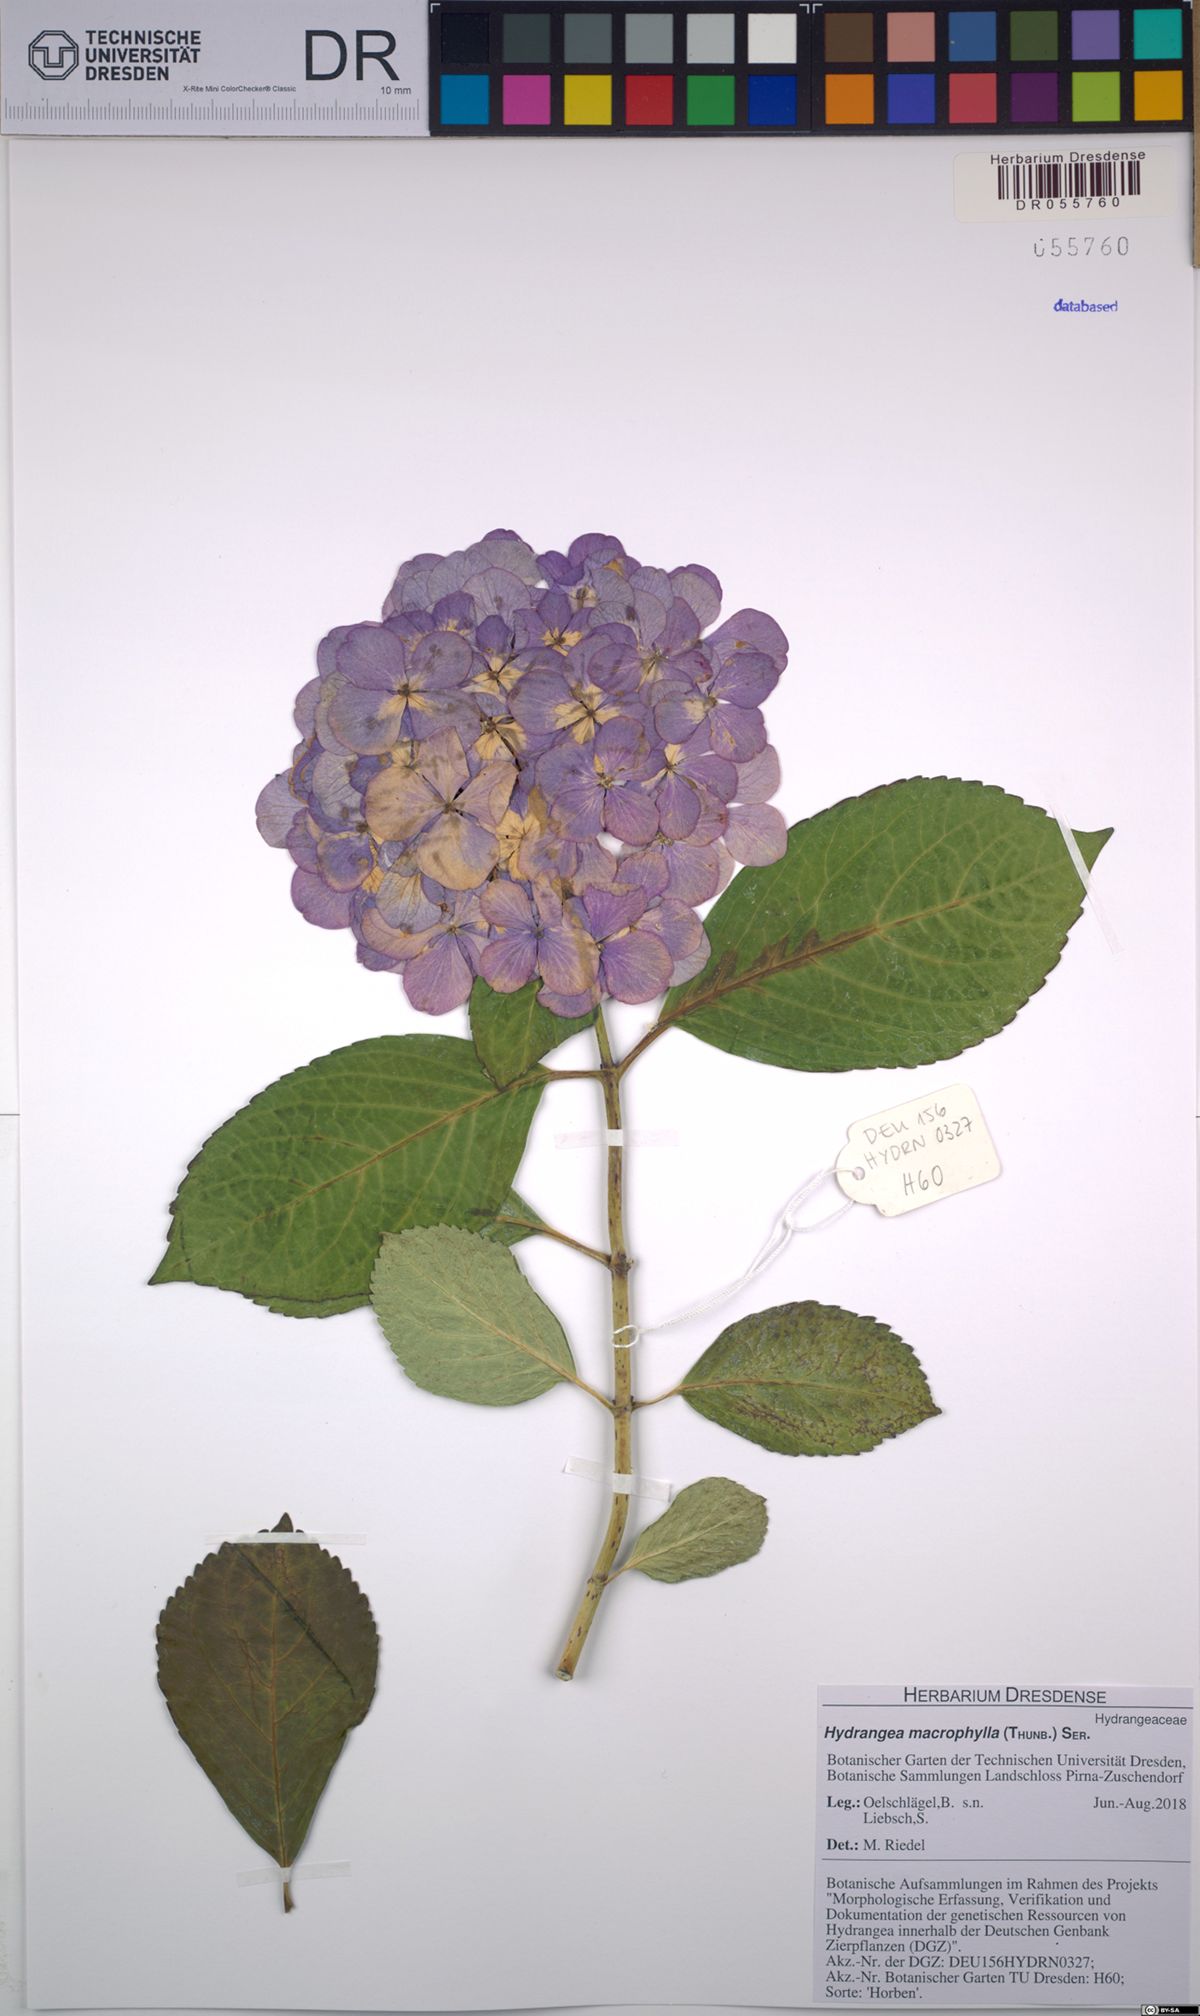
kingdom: Plantae
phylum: Tracheophyta
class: Magnoliopsida
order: Cornales
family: Hydrangeaceae
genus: Hydrangea
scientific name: Hydrangea macrophylla
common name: Hydrangea
